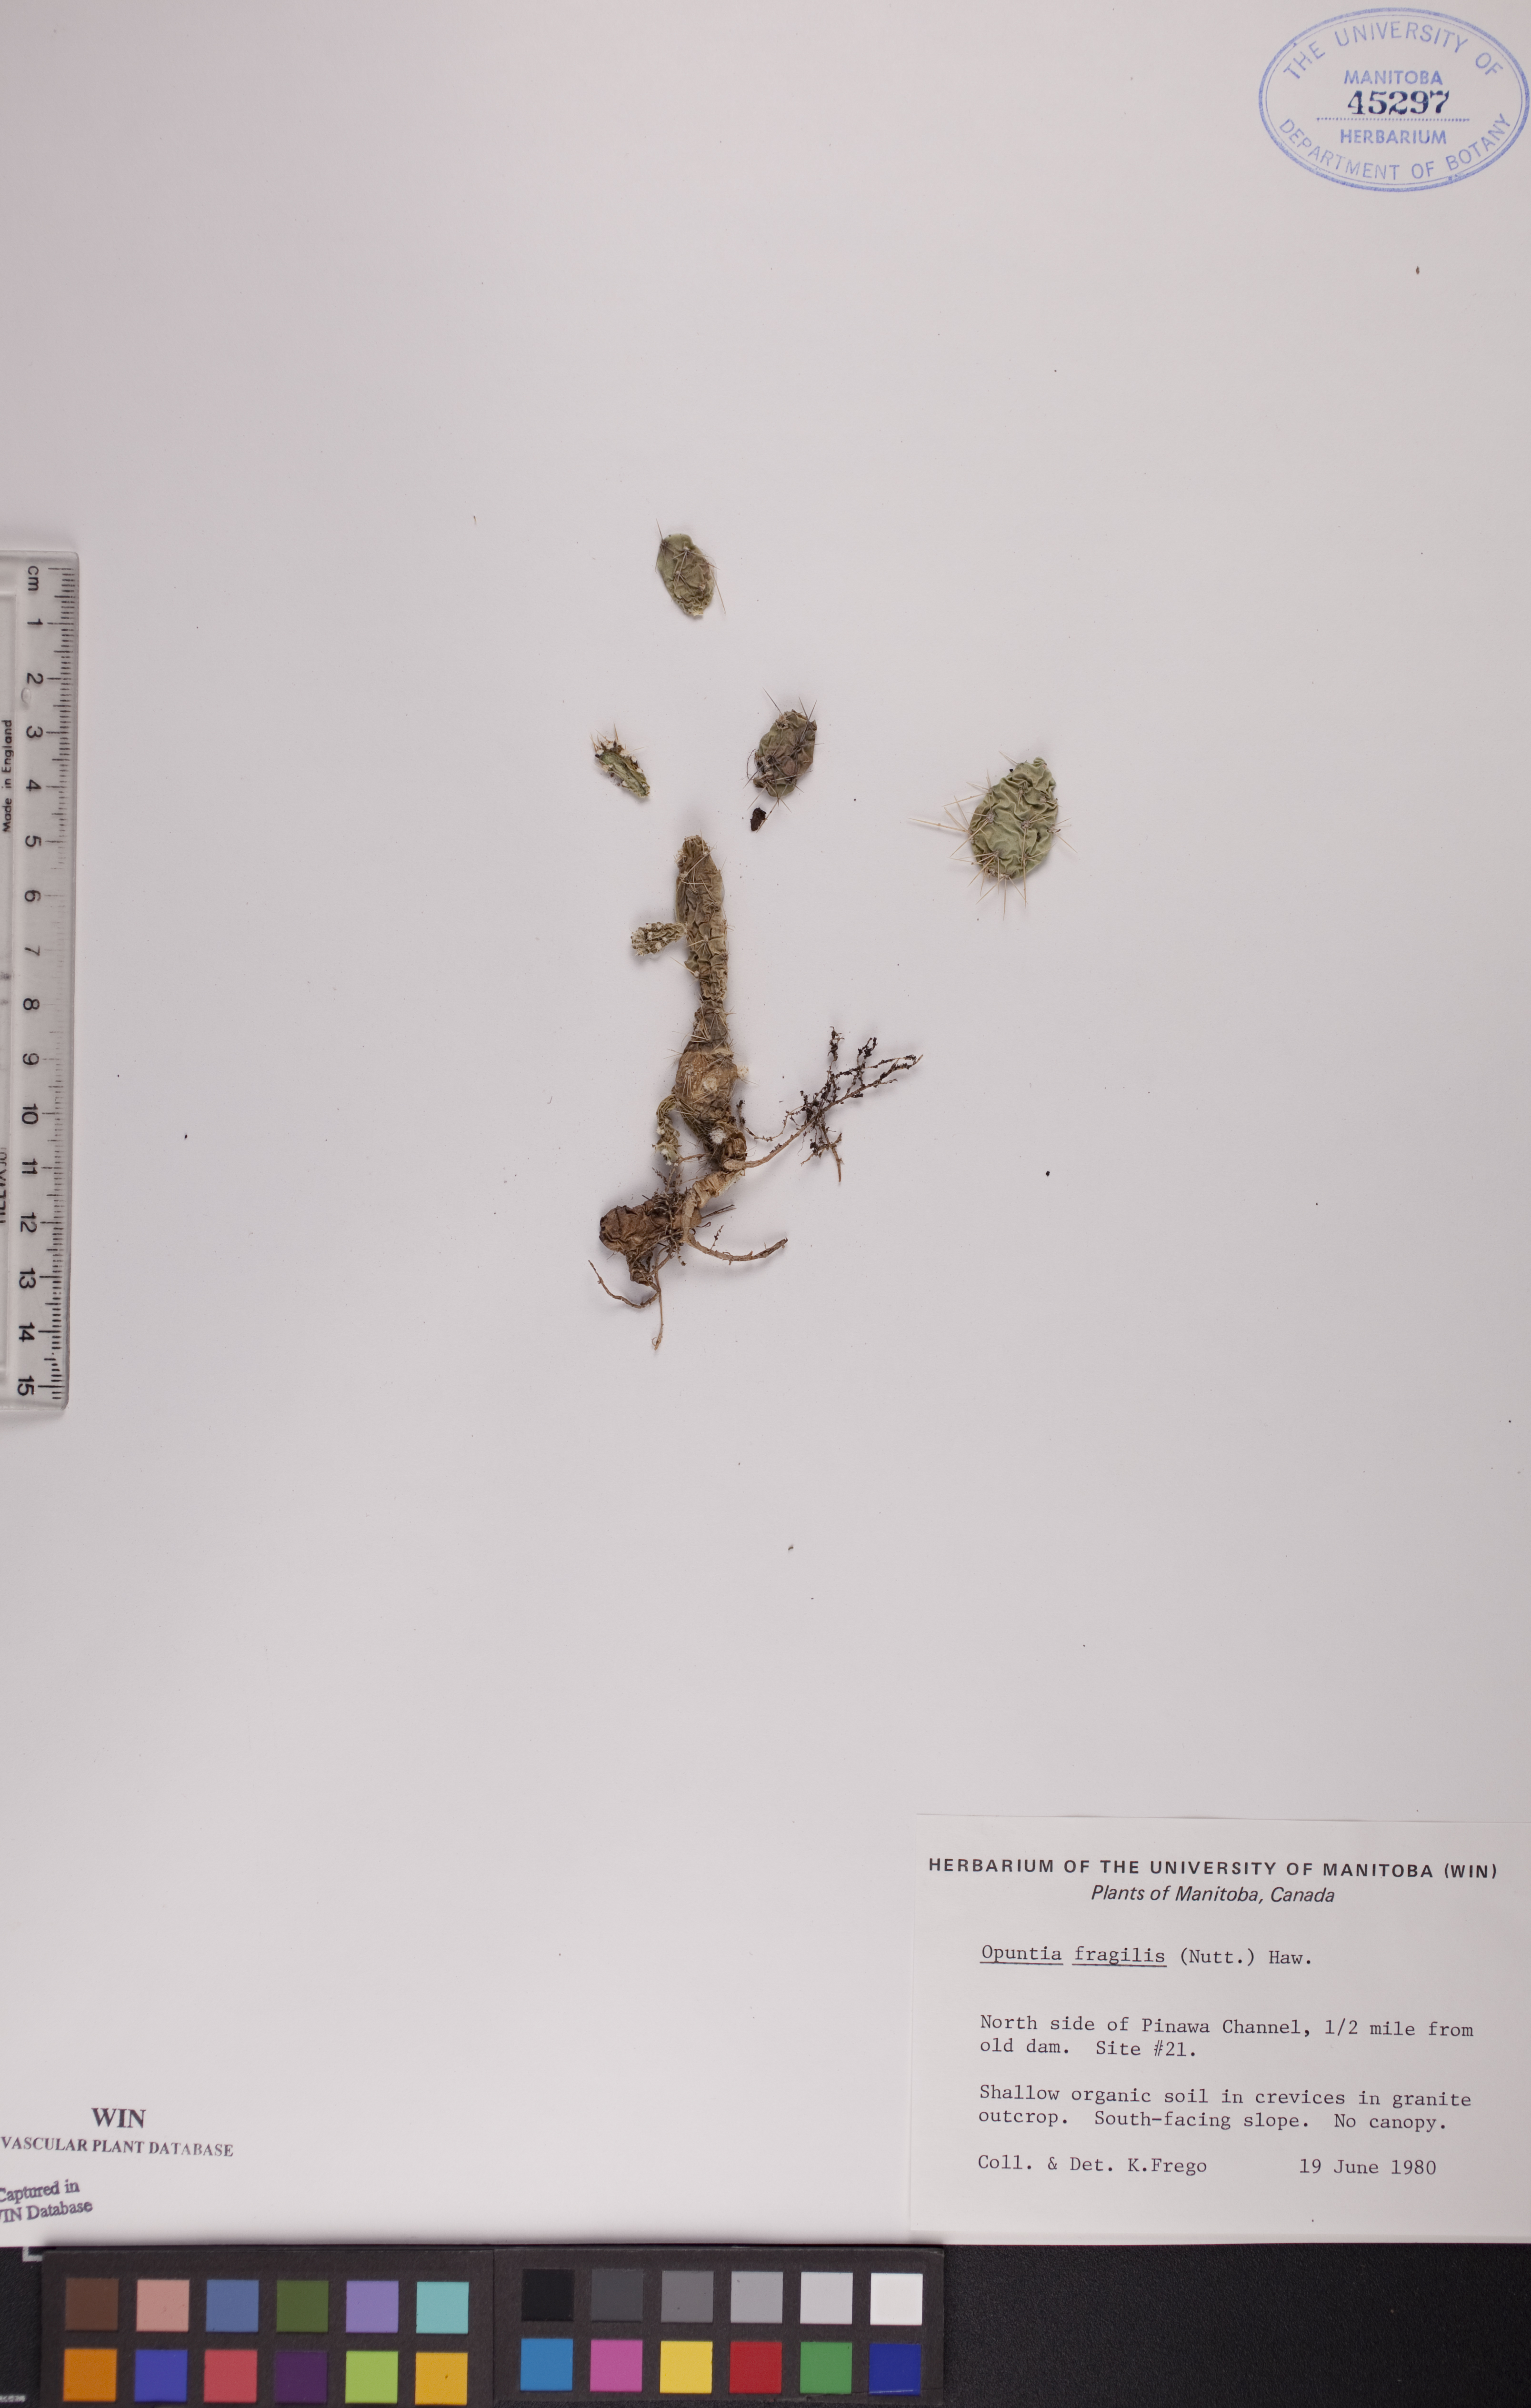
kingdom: Plantae
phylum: Tracheophyta
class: Magnoliopsida
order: Caryophyllales
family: Cactaceae
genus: Opuntia
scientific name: Opuntia fragilis
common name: Brittle cactus
